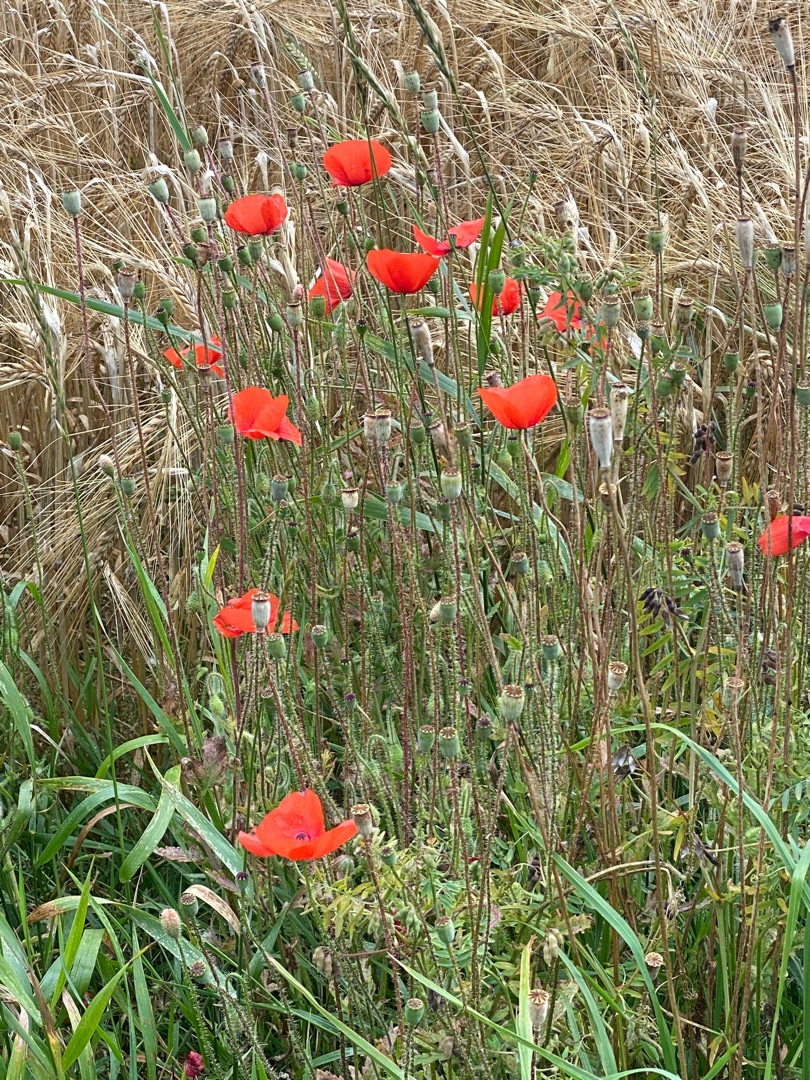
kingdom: Plantae
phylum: Tracheophyta
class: Magnoliopsida
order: Ranunculales
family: Papaveraceae
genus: Papaver
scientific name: Papaver rhoeas
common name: Korn-valmue
